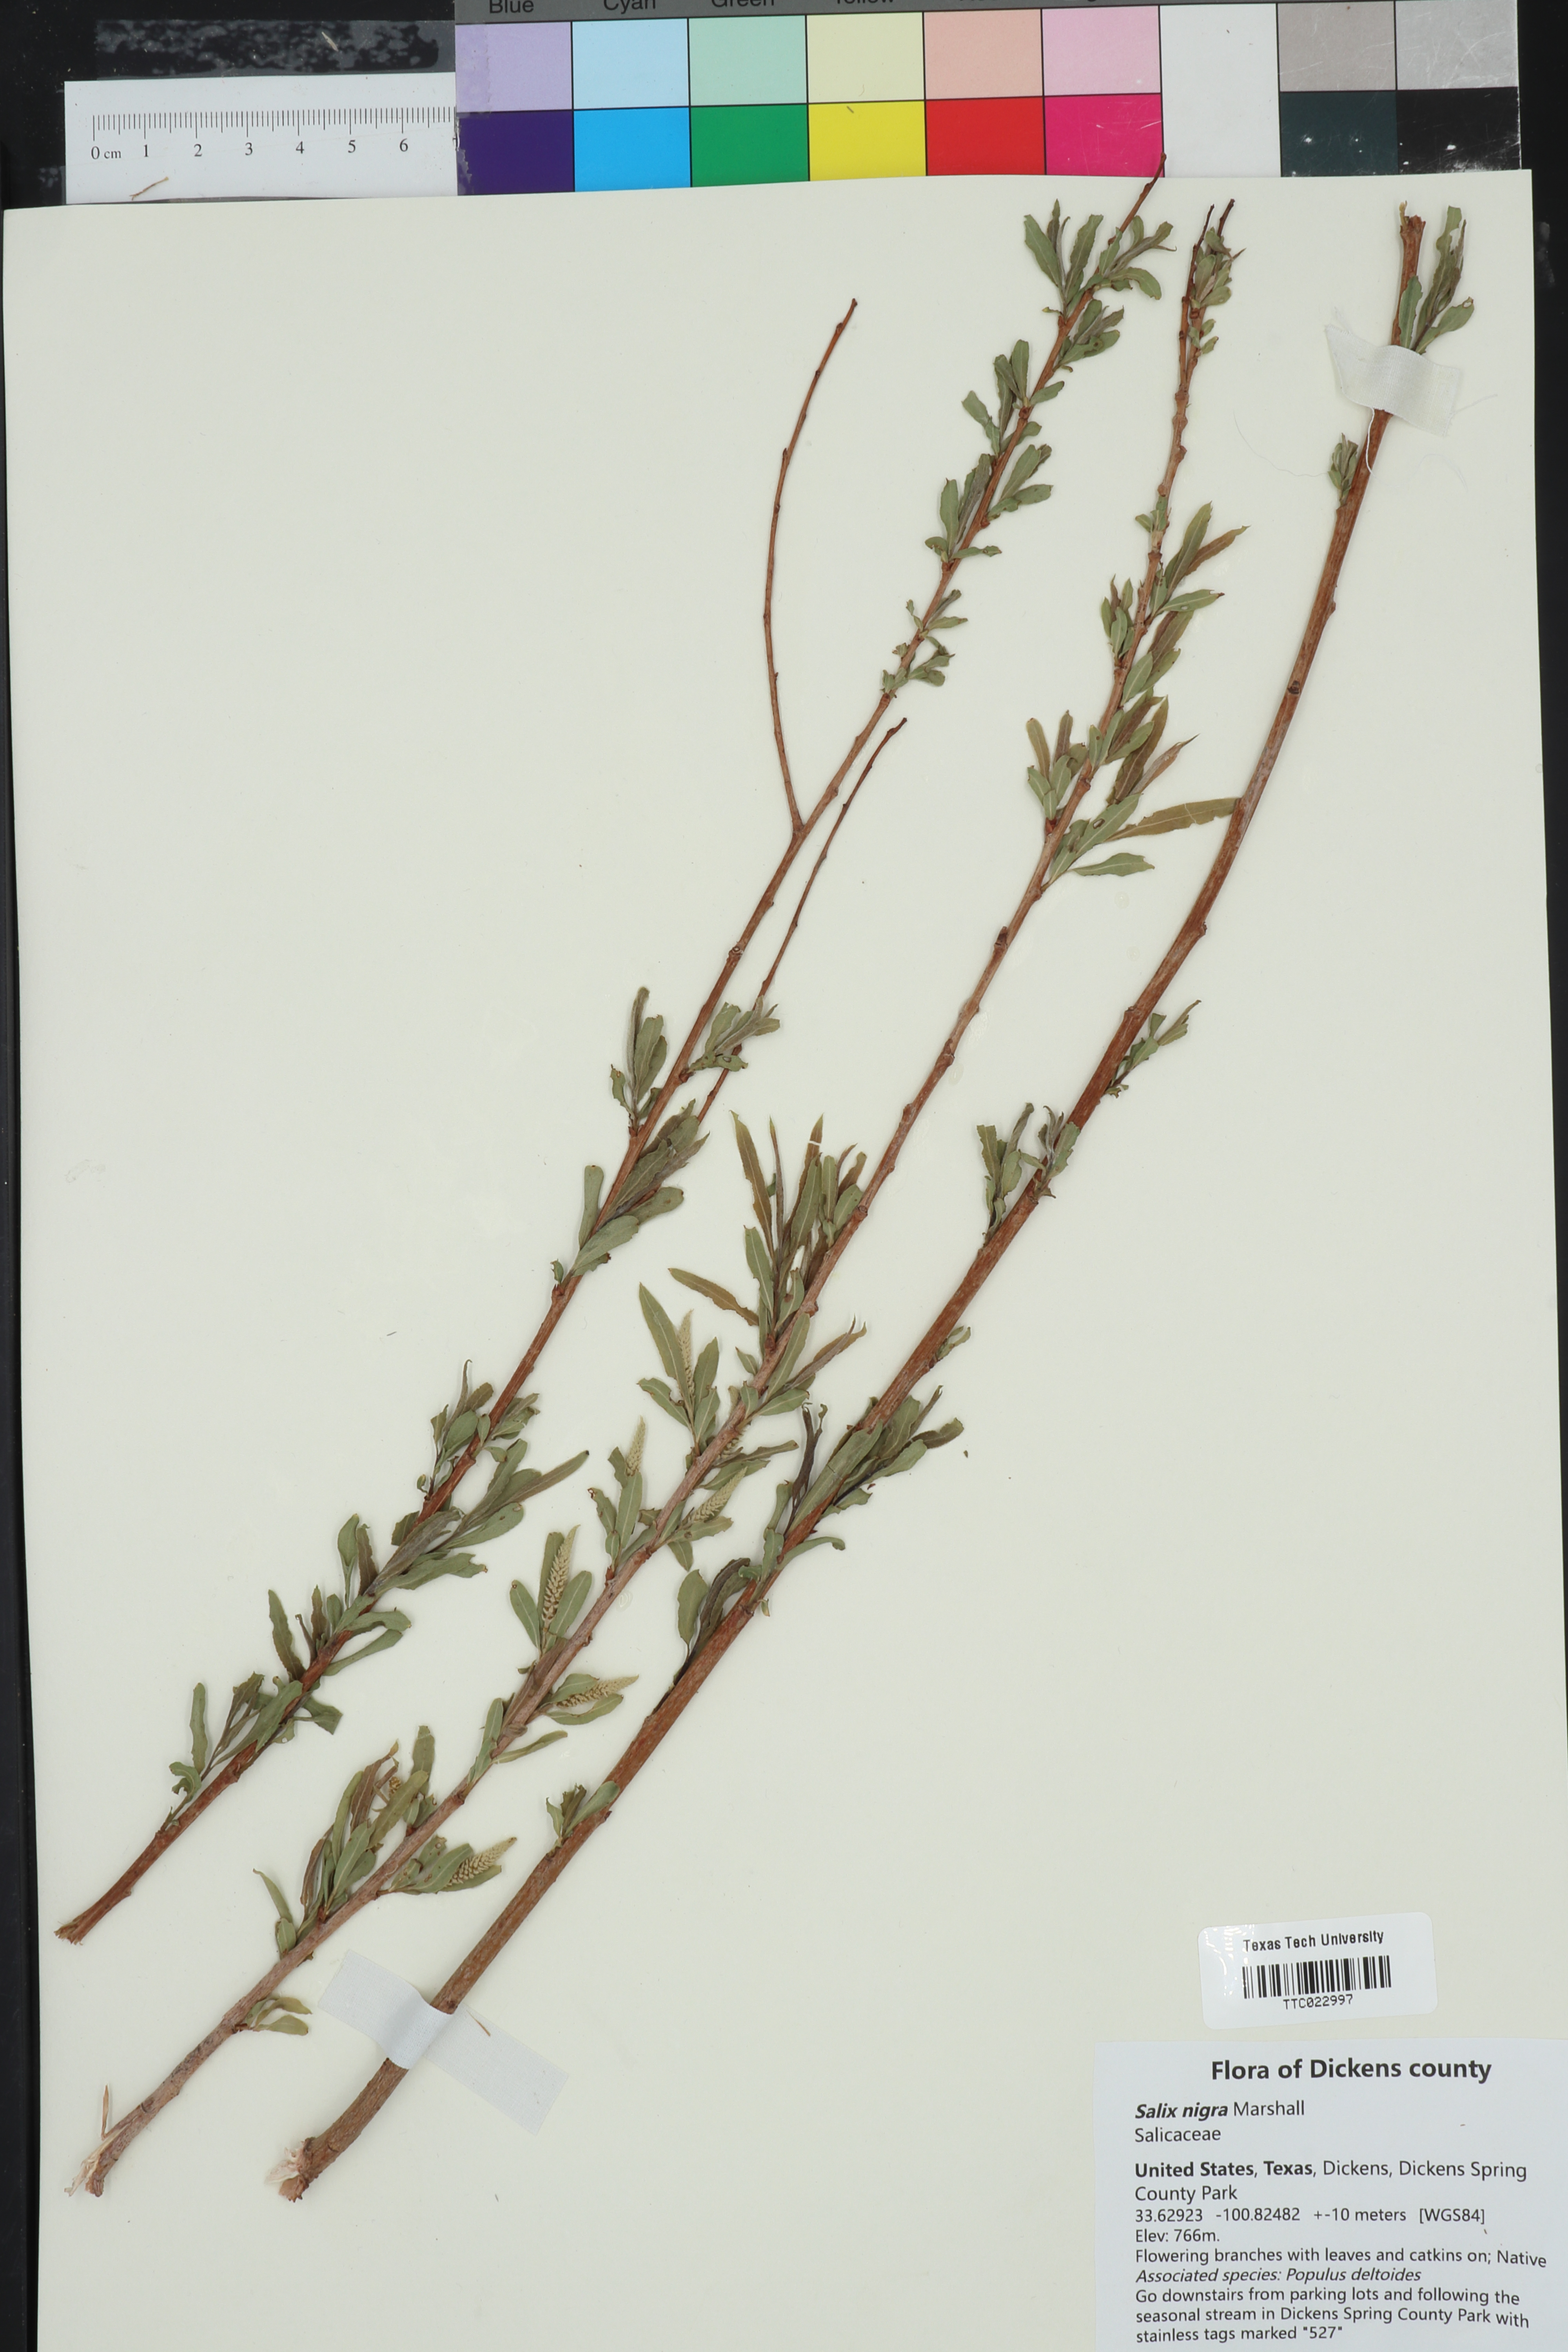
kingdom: Plantae
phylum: Tracheophyta
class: Magnoliopsida
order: Malpighiales
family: Salicaceae
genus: Salix
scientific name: Salix nigra
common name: Black willow
